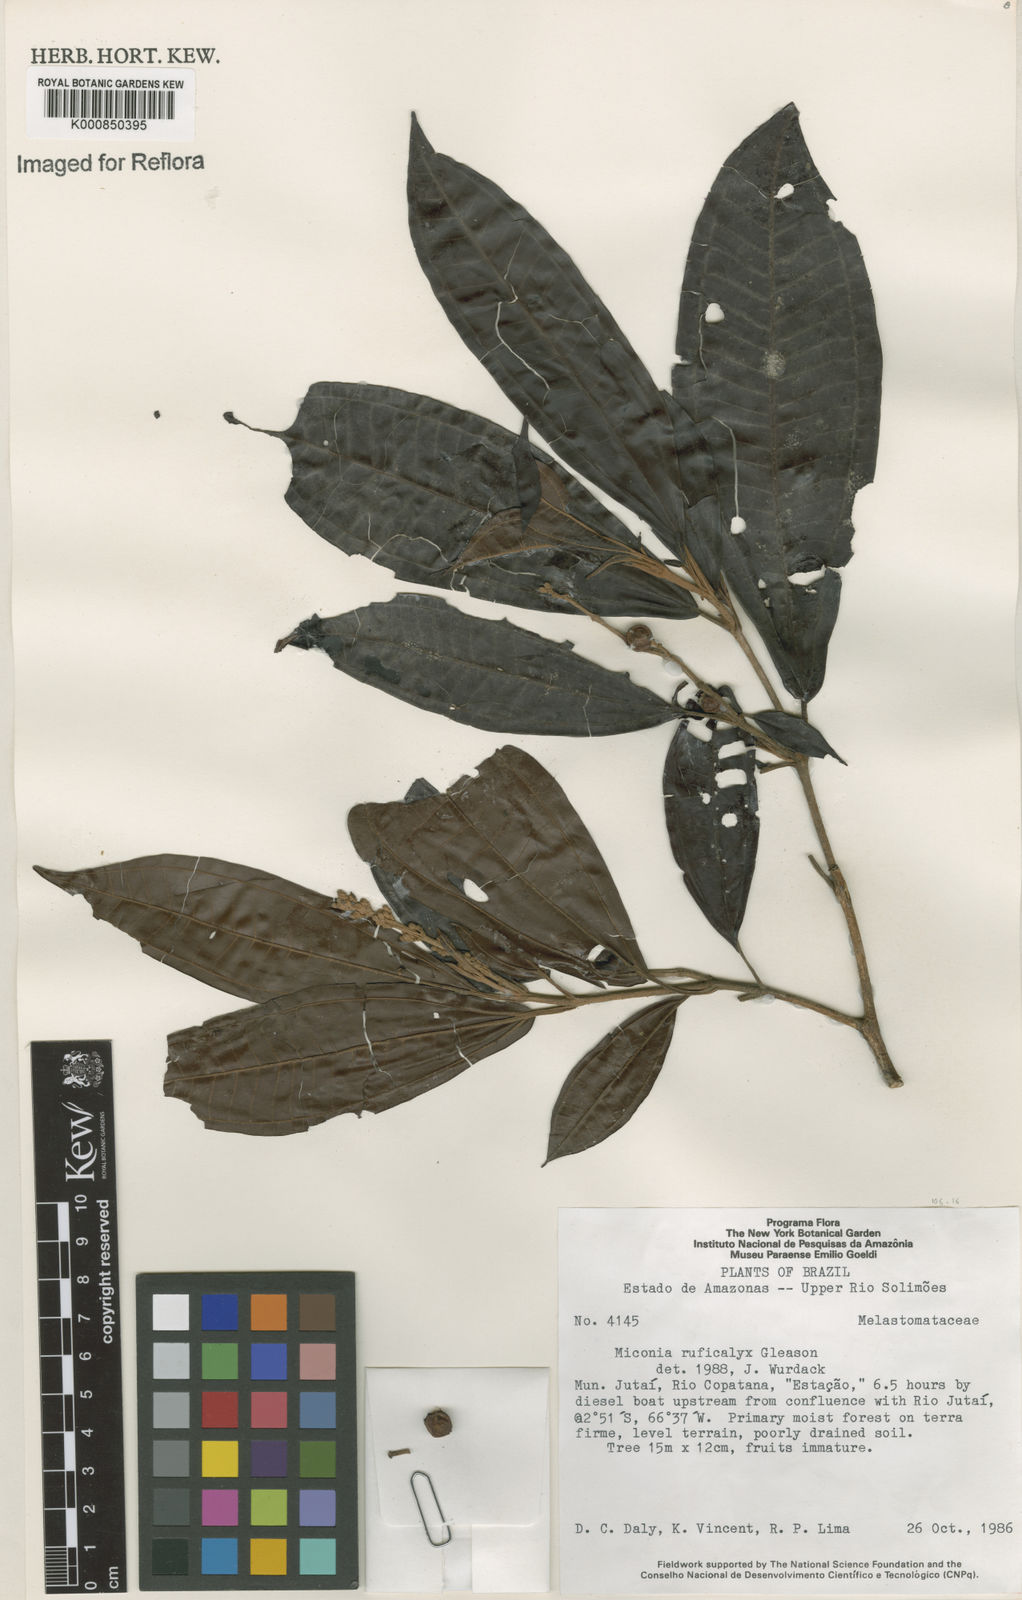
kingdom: Plantae
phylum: Tracheophyta
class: Magnoliopsida
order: Myrtales
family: Melastomataceae
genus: Miconia
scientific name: Miconia ruficalyx
